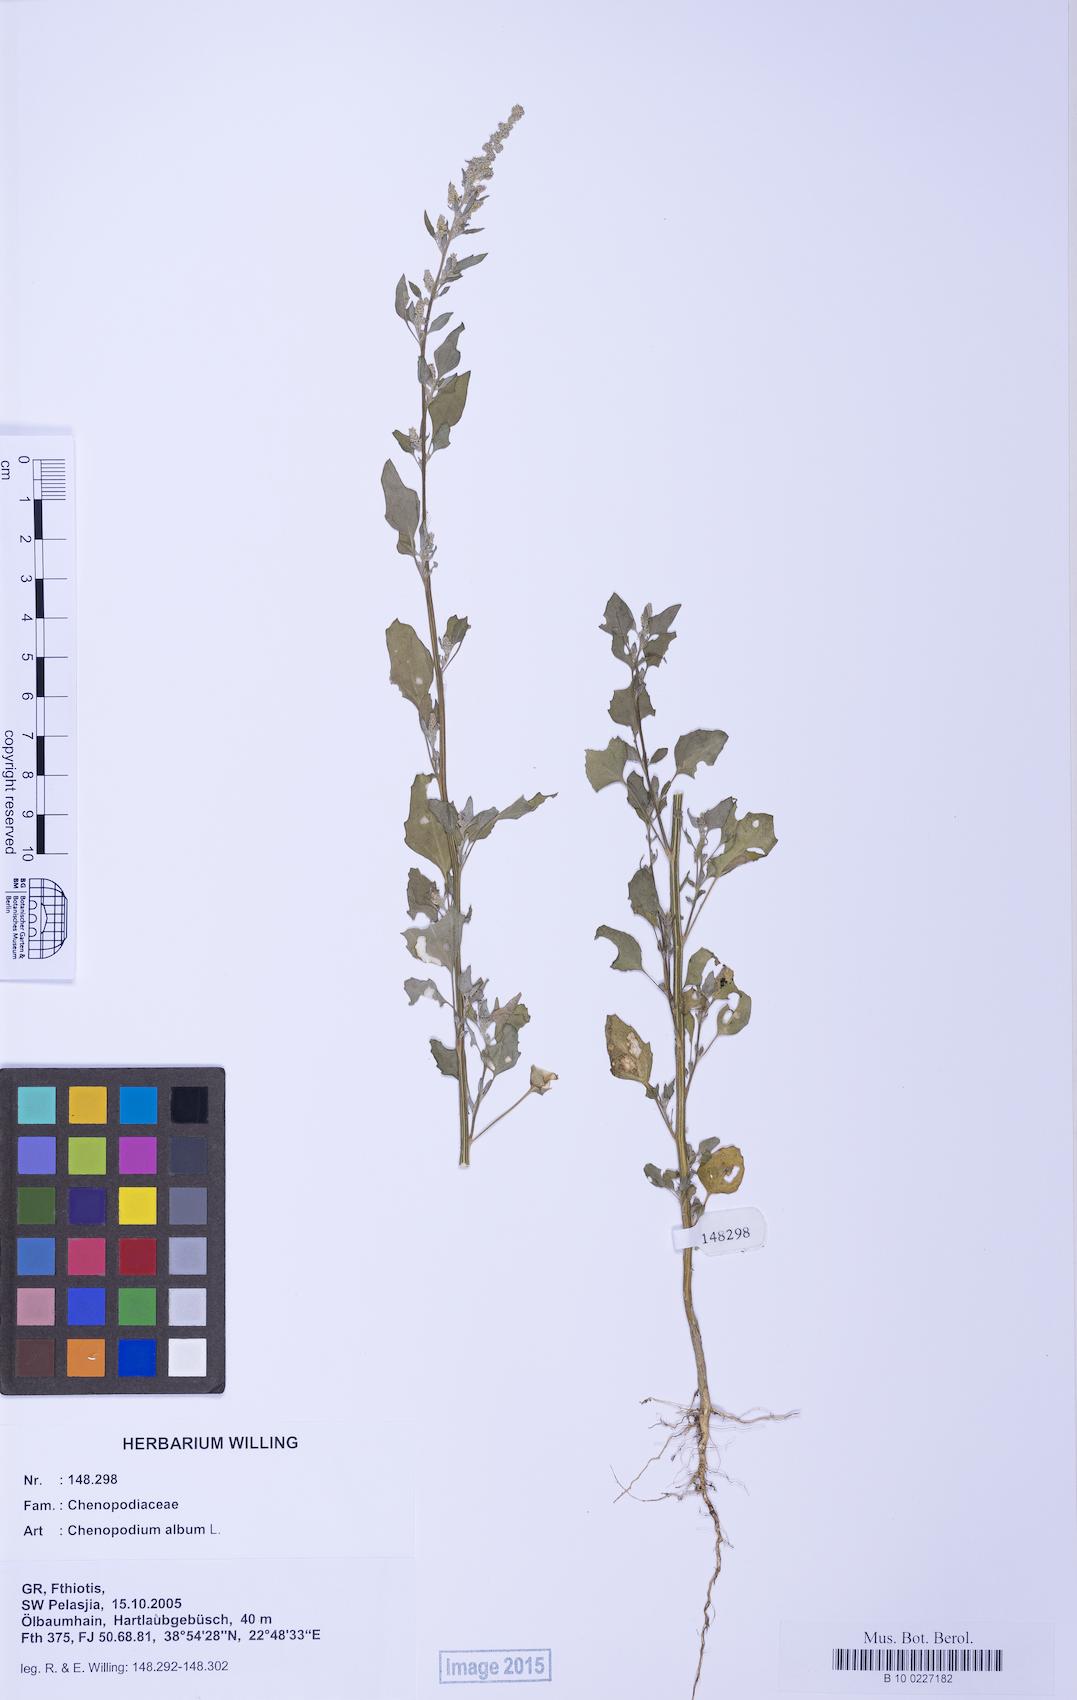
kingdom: Plantae
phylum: Tracheophyta
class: Magnoliopsida
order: Caryophyllales
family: Amaranthaceae
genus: Chenopodium
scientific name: Chenopodium album
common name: Fat-hen
